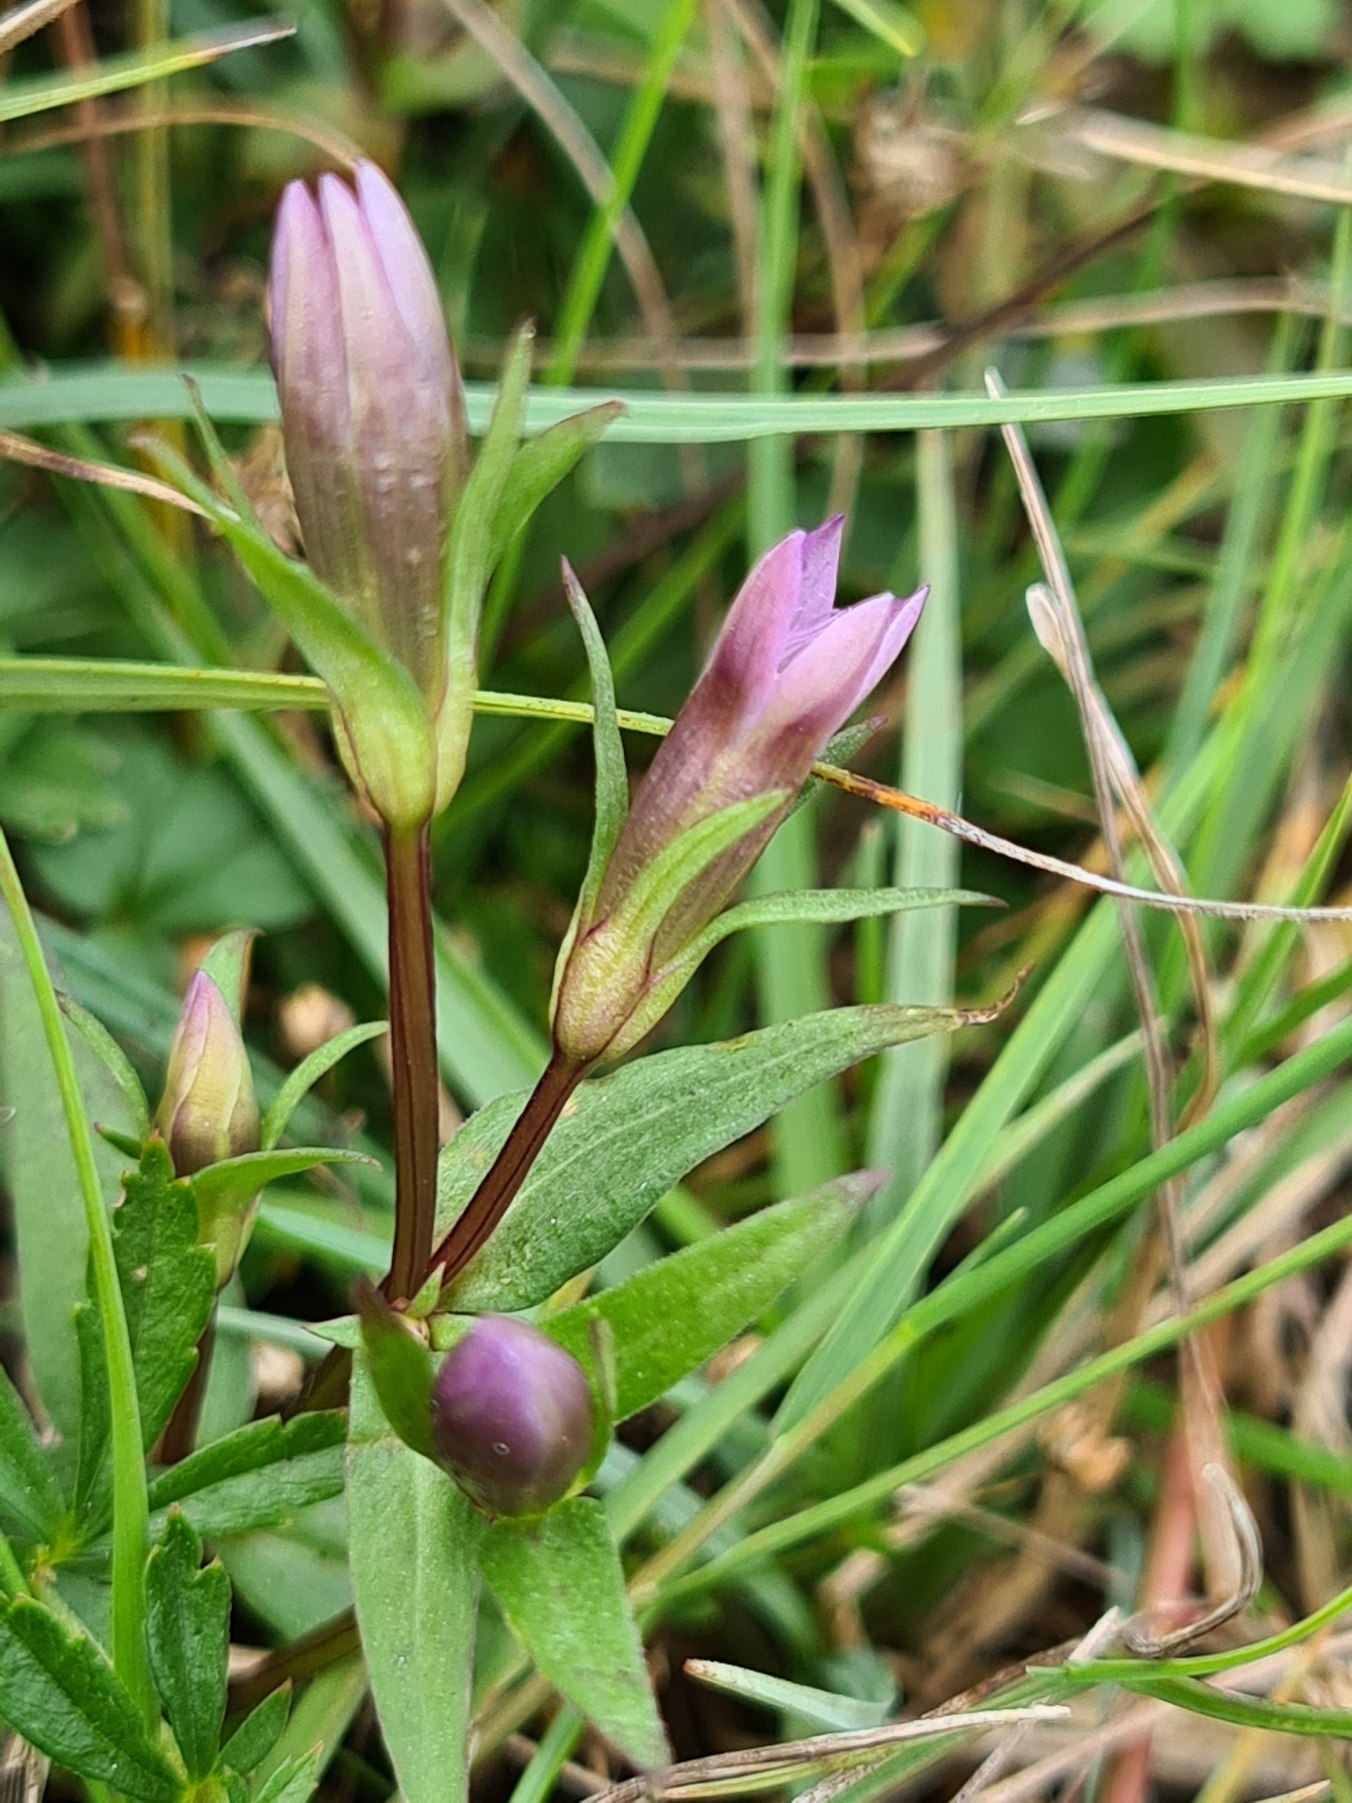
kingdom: Plantae
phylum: Tracheophyta
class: Magnoliopsida
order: Gentianales
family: Gentianaceae
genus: Gentianella
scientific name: Gentianella uliginosa
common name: Eng-ensian
